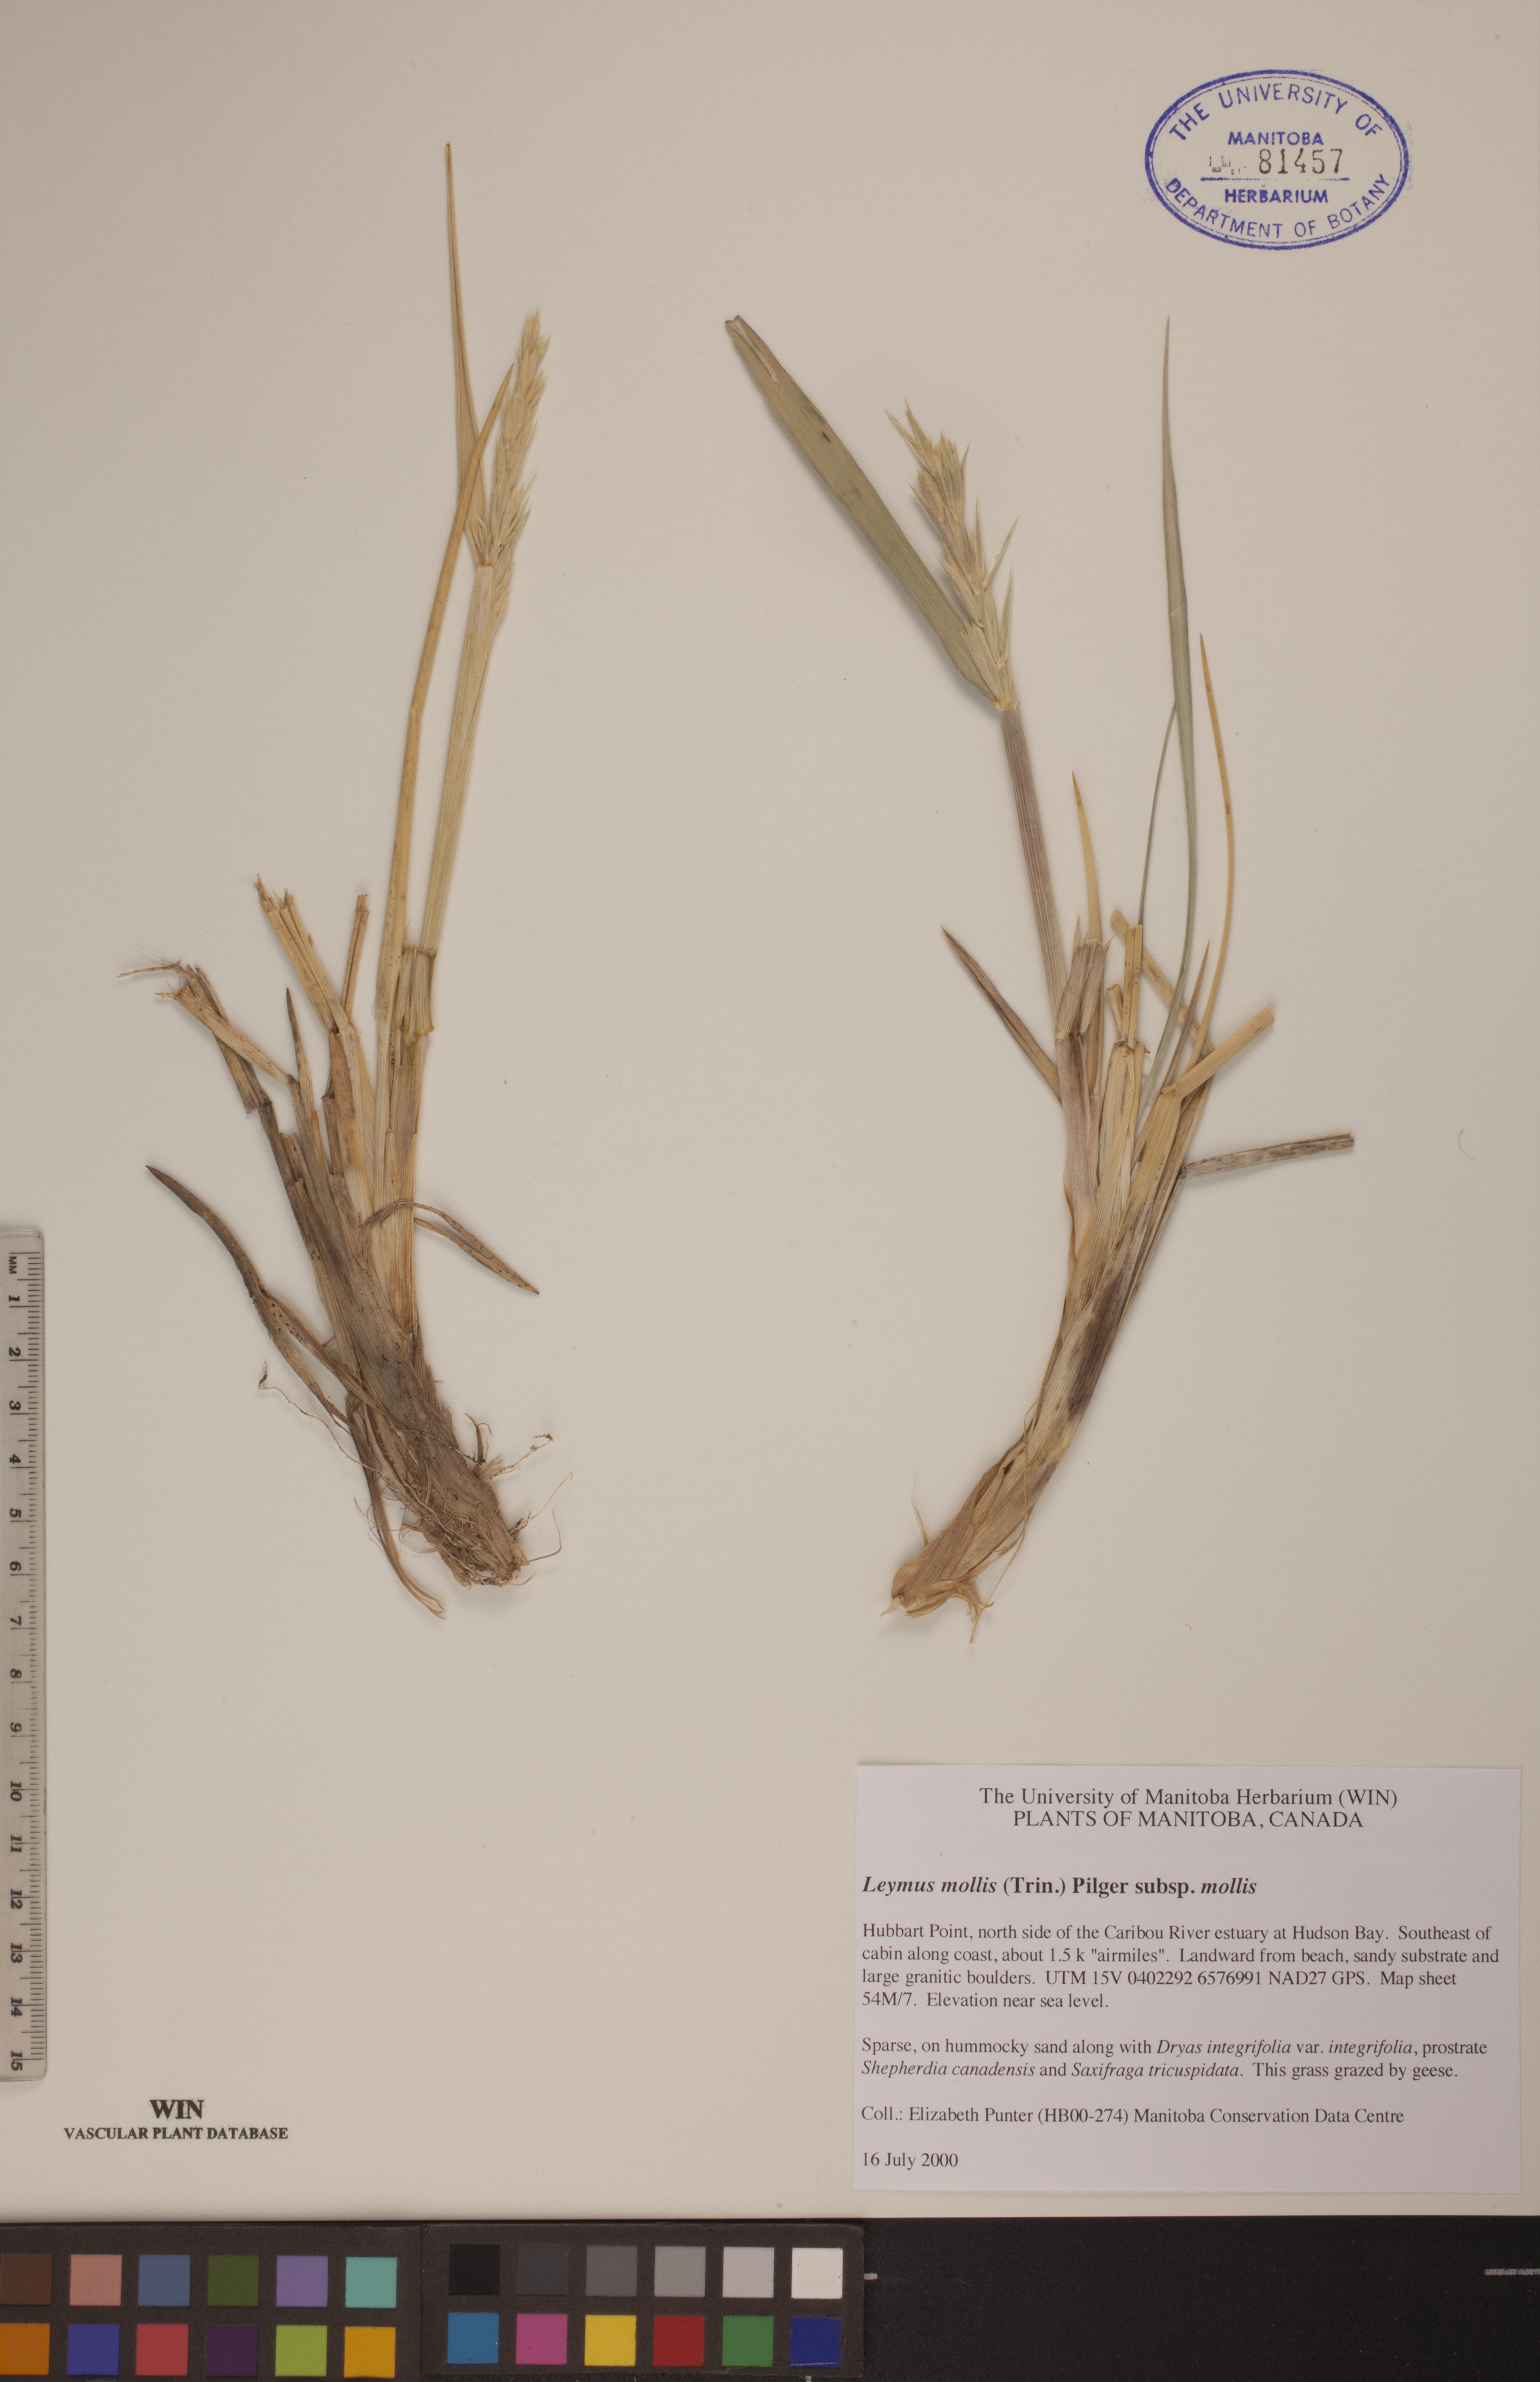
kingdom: Plantae
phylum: Tracheophyta
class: Liliopsida
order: Poales
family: Poaceae
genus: Leymus
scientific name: Leymus mollis
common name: American dune grass
